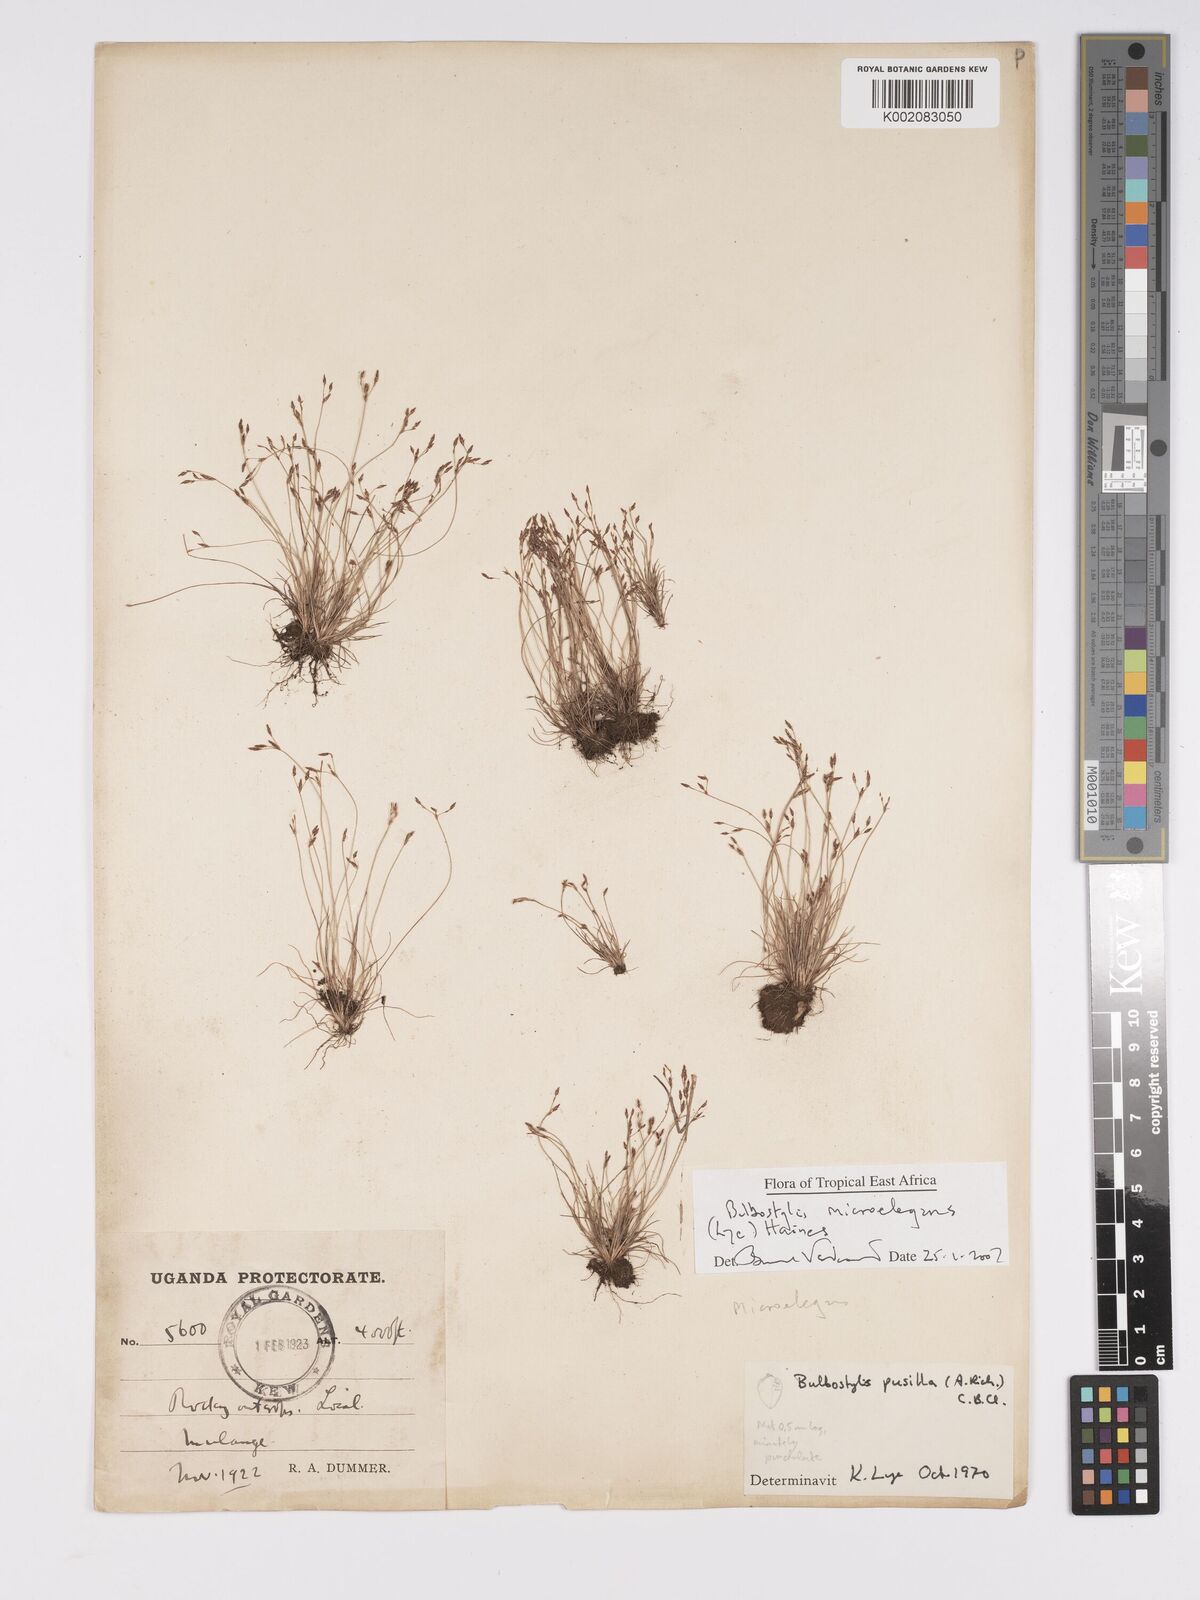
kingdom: Plantae
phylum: Tracheophyta
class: Liliopsida
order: Poales
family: Cyperaceae
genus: Bulbostylis
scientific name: Bulbostylis microelegans
